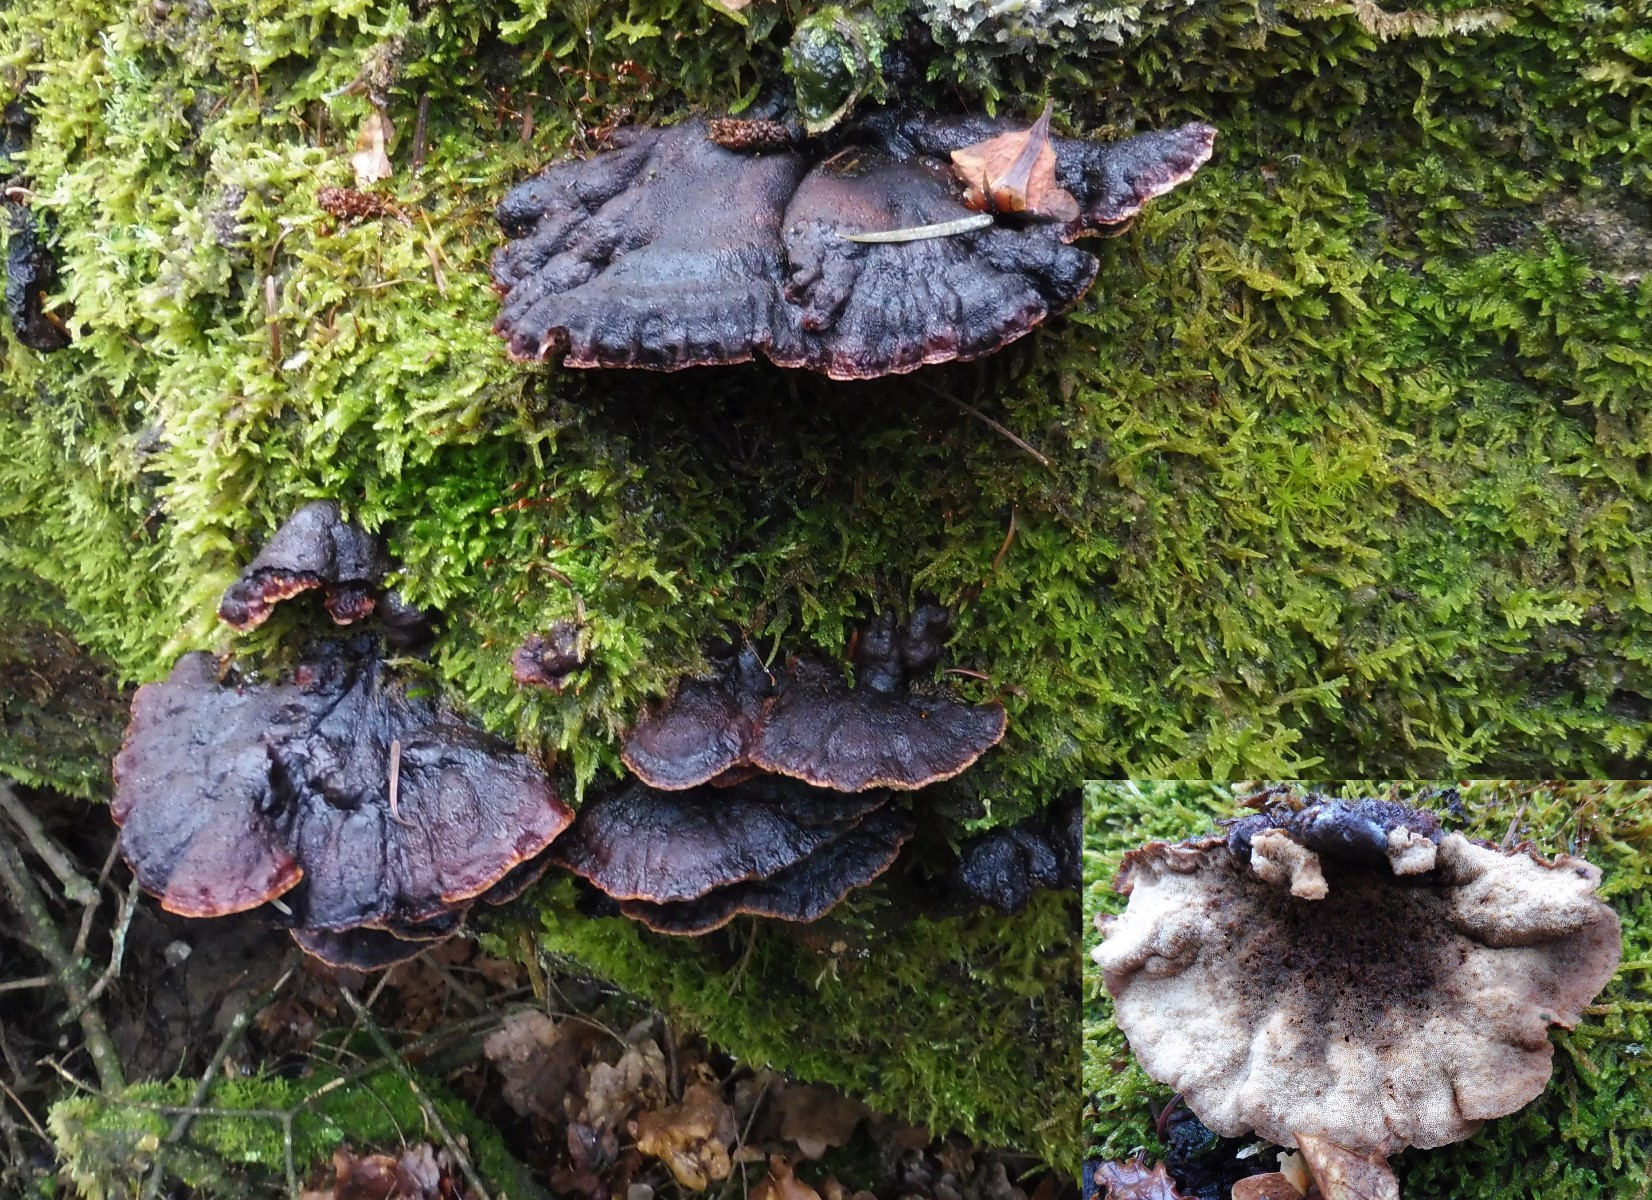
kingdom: Fungi
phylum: Basidiomycota
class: Agaricomycetes
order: Polyporales
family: Ischnodermataceae
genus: Ischnoderma
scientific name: Ischnoderma benzoinum
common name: gran-tjæreporesvamp
